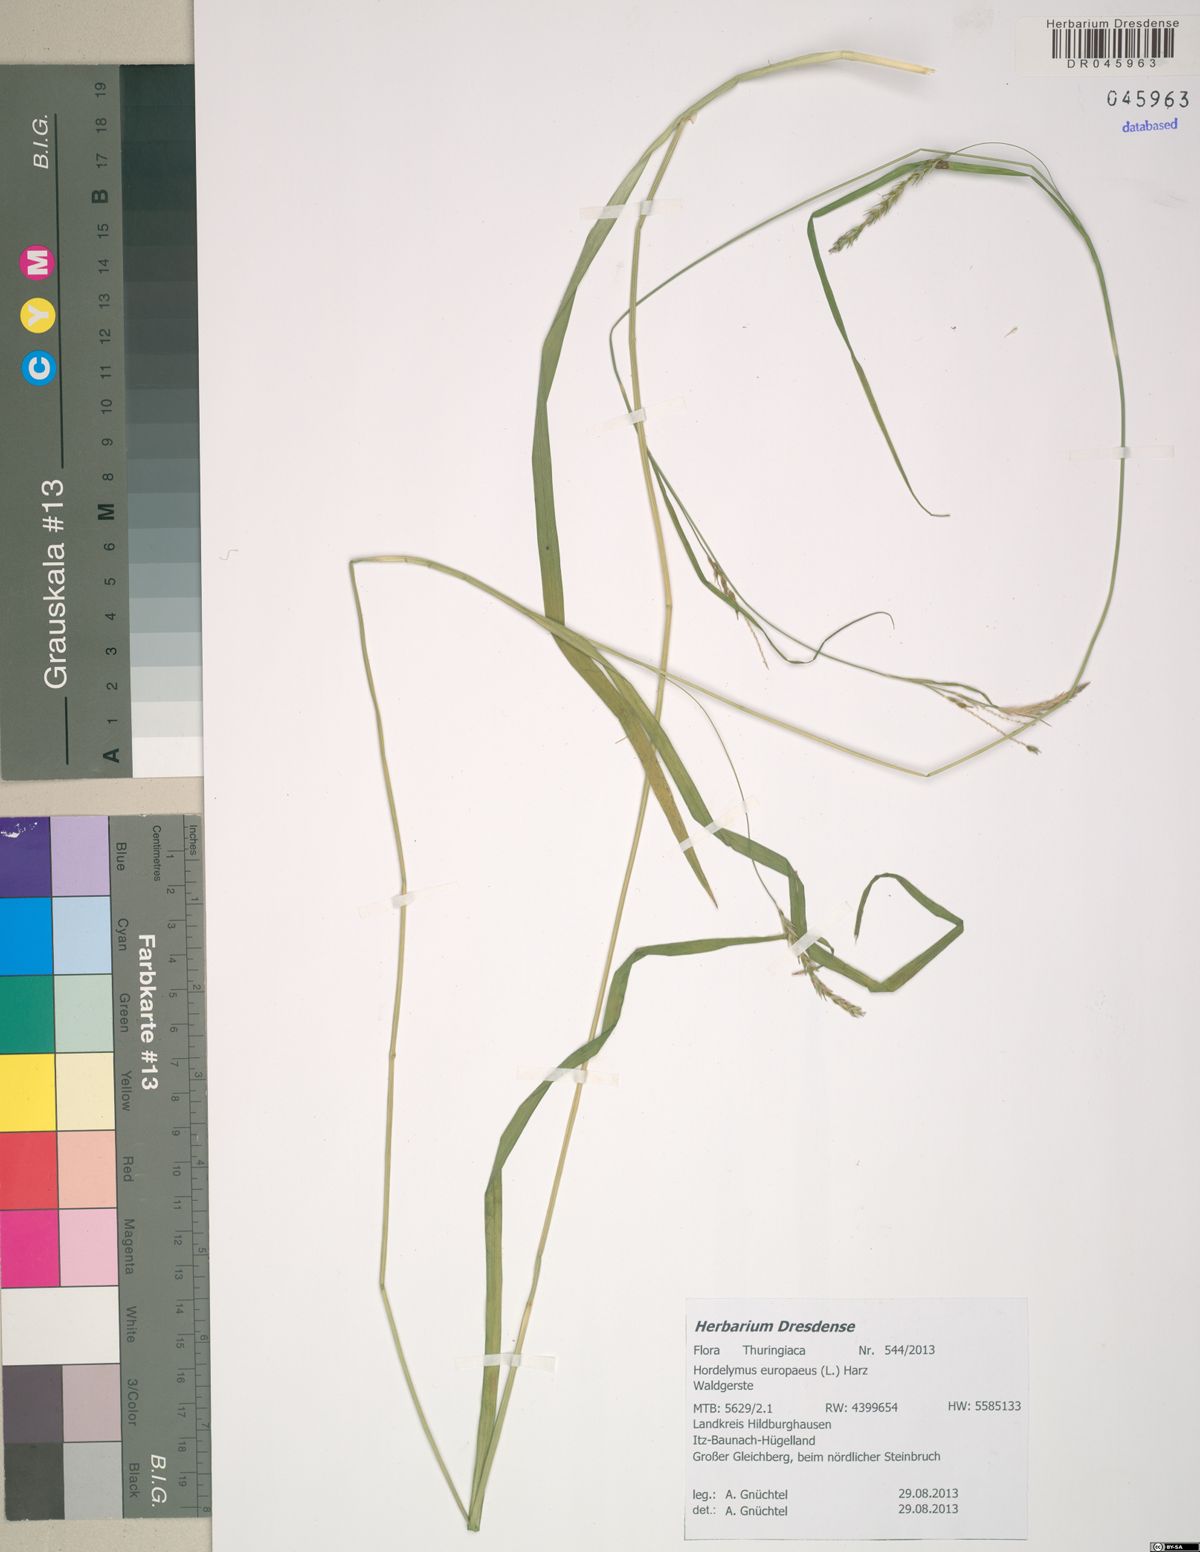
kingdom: Plantae
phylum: Tracheophyta
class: Liliopsida
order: Poales
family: Poaceae
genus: Hordelymus
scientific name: Hordelymus europaeus
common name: Wood-barley
